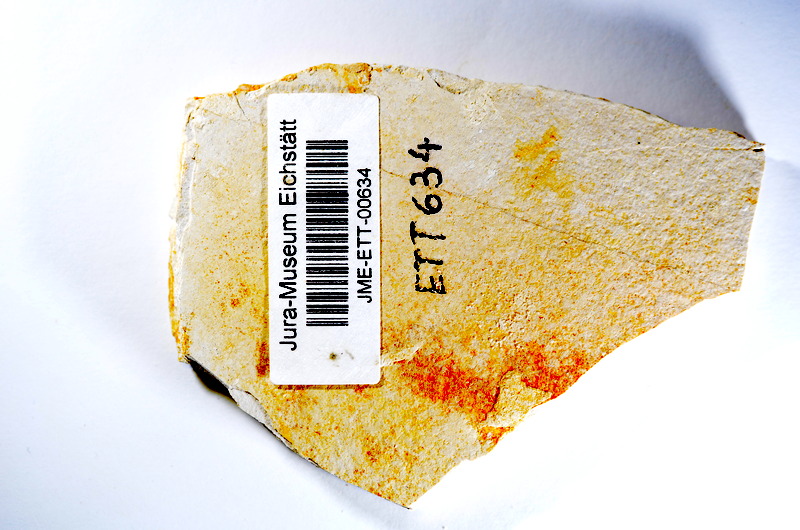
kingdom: Animalia
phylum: Chordata
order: Salmoniformes
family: Orthogonikleithridae
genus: Orthogonikleithrus
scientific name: Orthogonikleithrus hoelli
